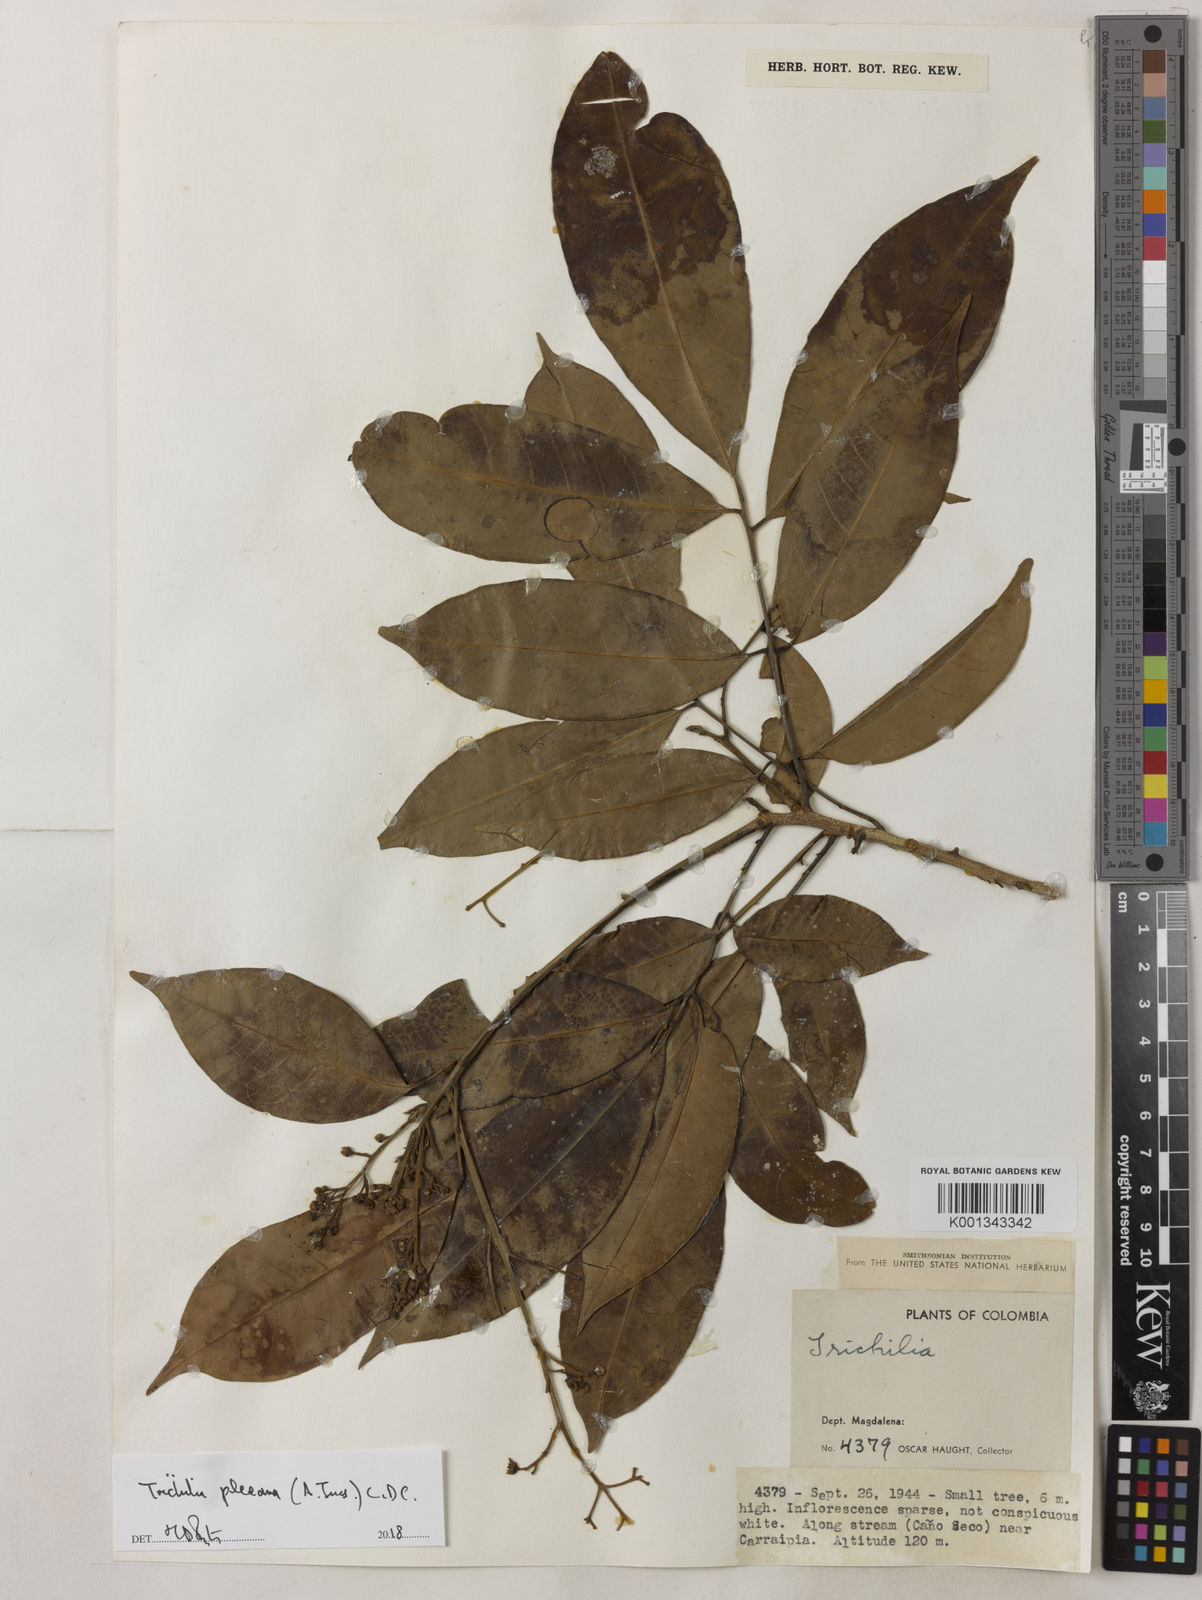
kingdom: Plantae
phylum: Tracheophyta
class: Magnoliopsida
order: Sapindales
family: Meliaceae
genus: Trichilia
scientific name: Trichilia pleeana
